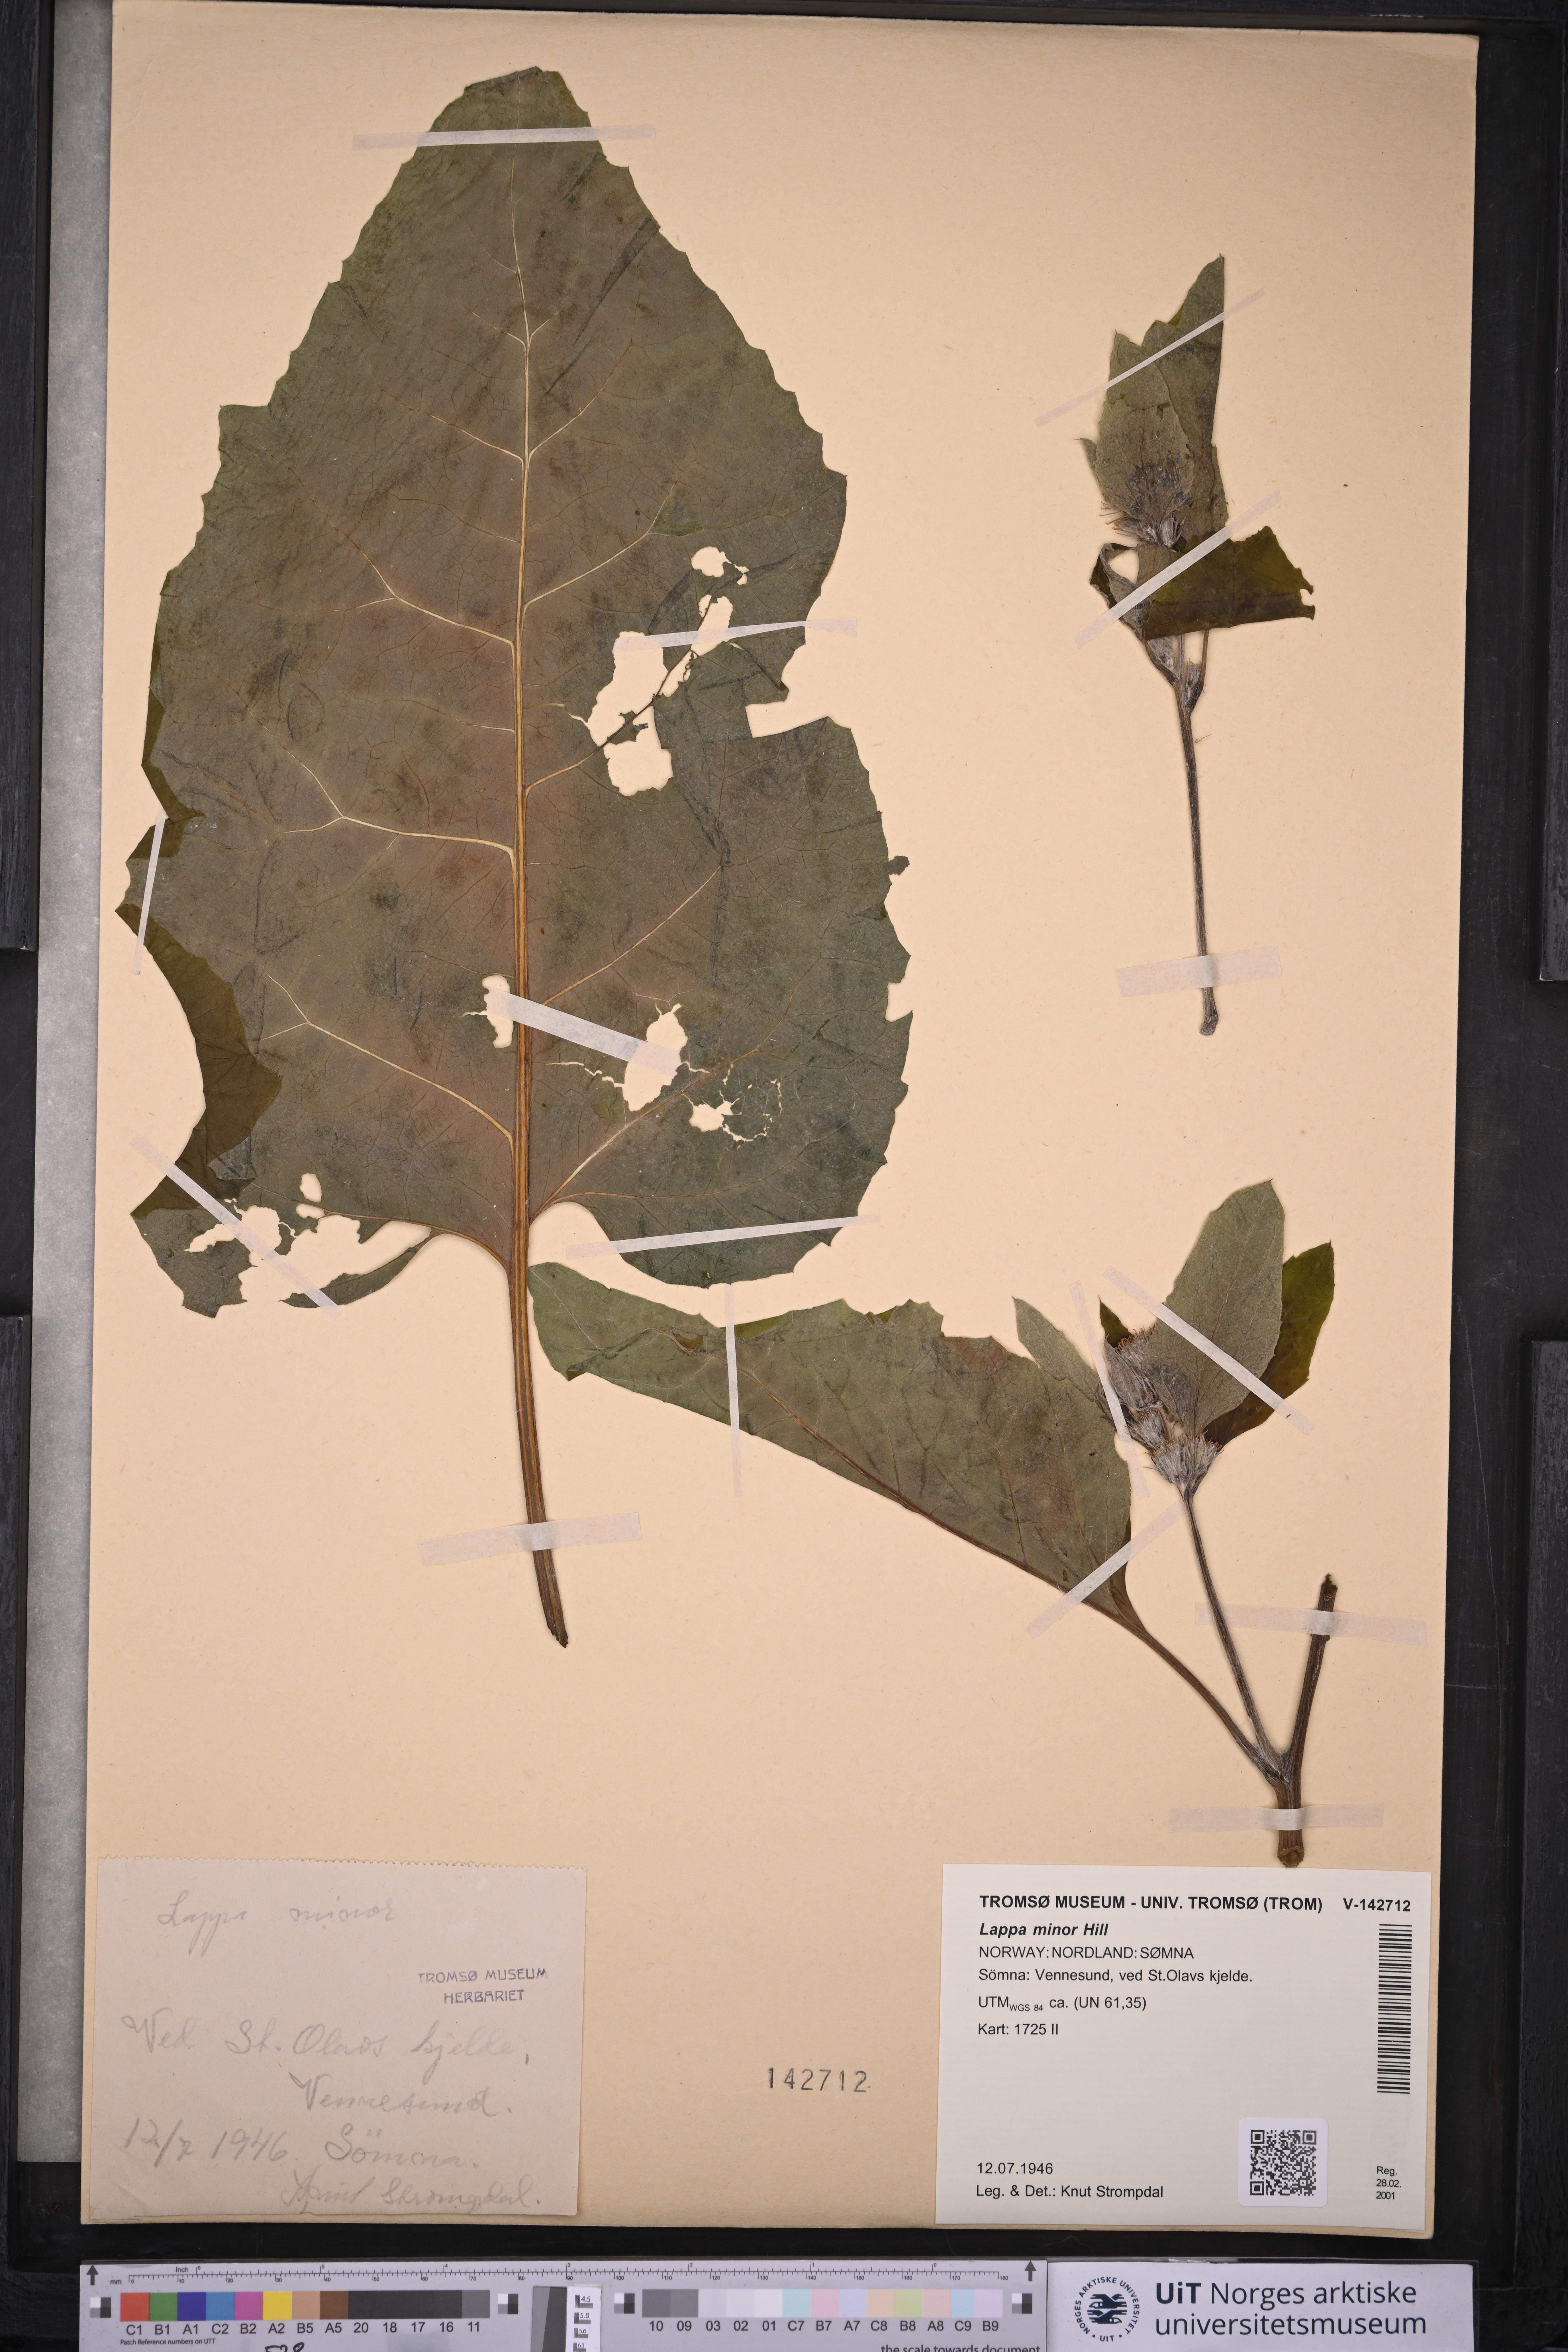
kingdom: Plantae
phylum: Tracheophyta
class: Magnoliopsida
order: Asterales
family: Asteraceae
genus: Arctium
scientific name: Arctium minus
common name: Lesser burdock
